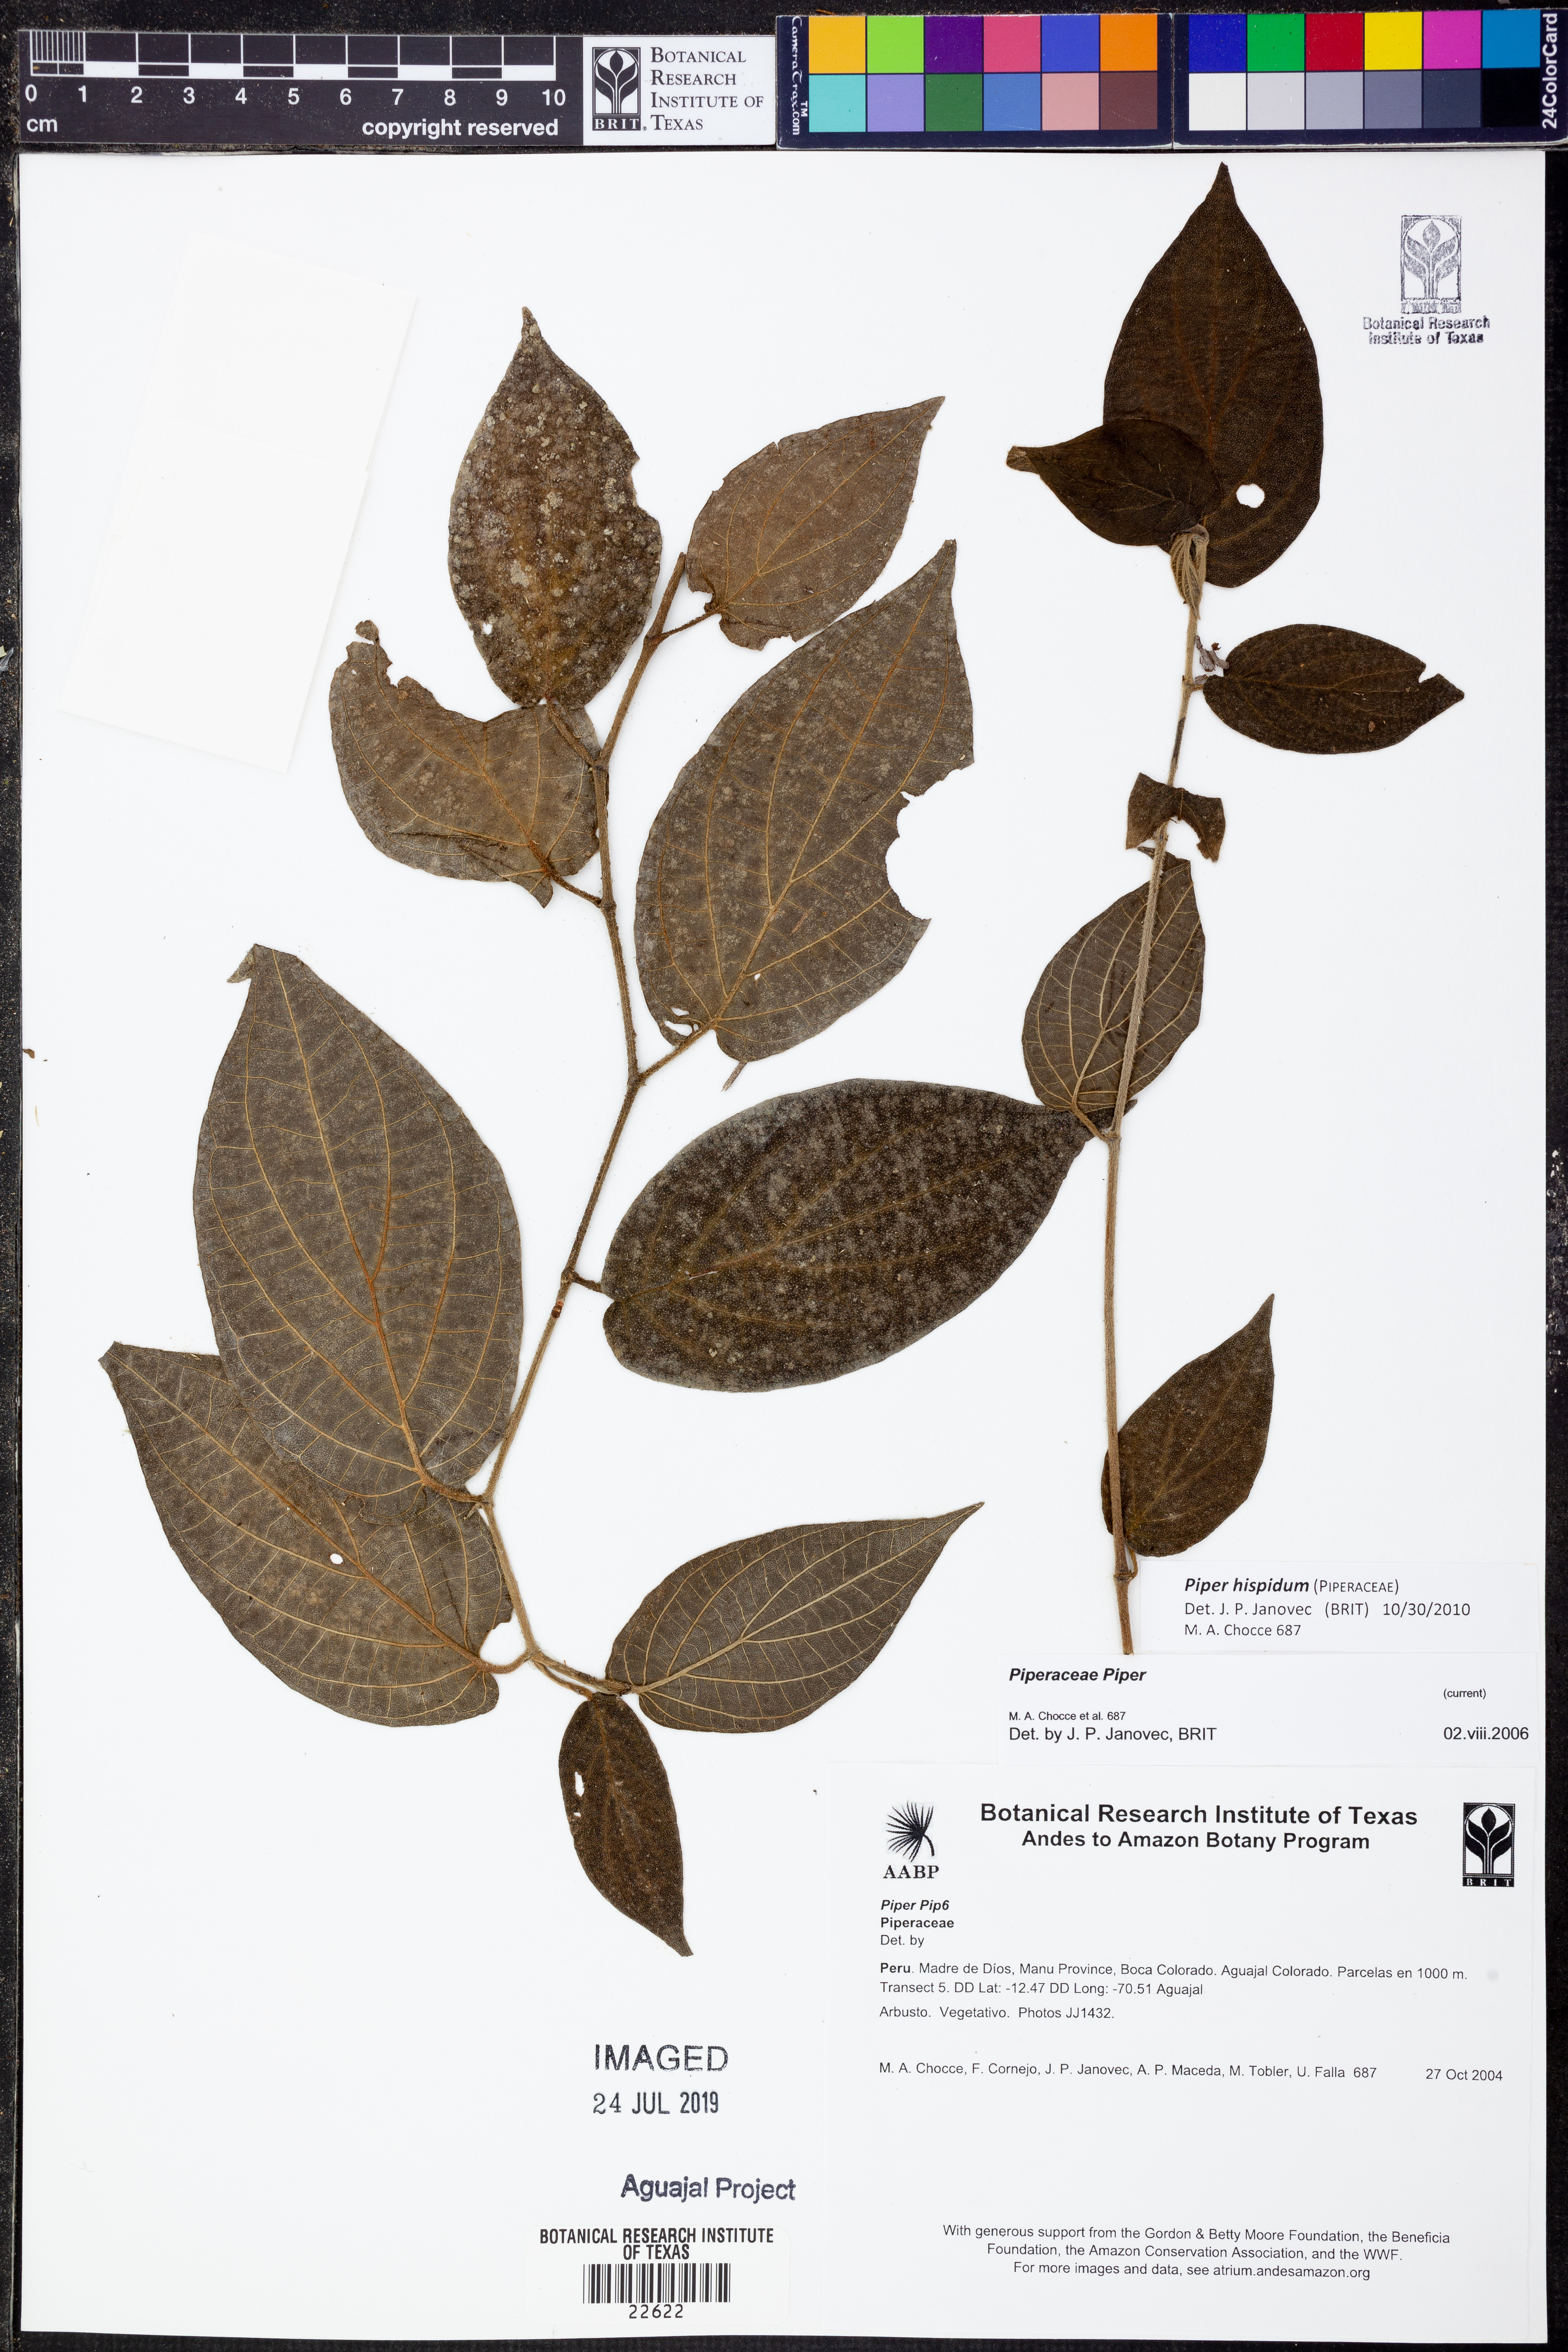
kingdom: Plantae
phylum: Tracheophyta
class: Magnoliopsida
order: Piperales
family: Piperaceae
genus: Piper
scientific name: Piper hispidum
